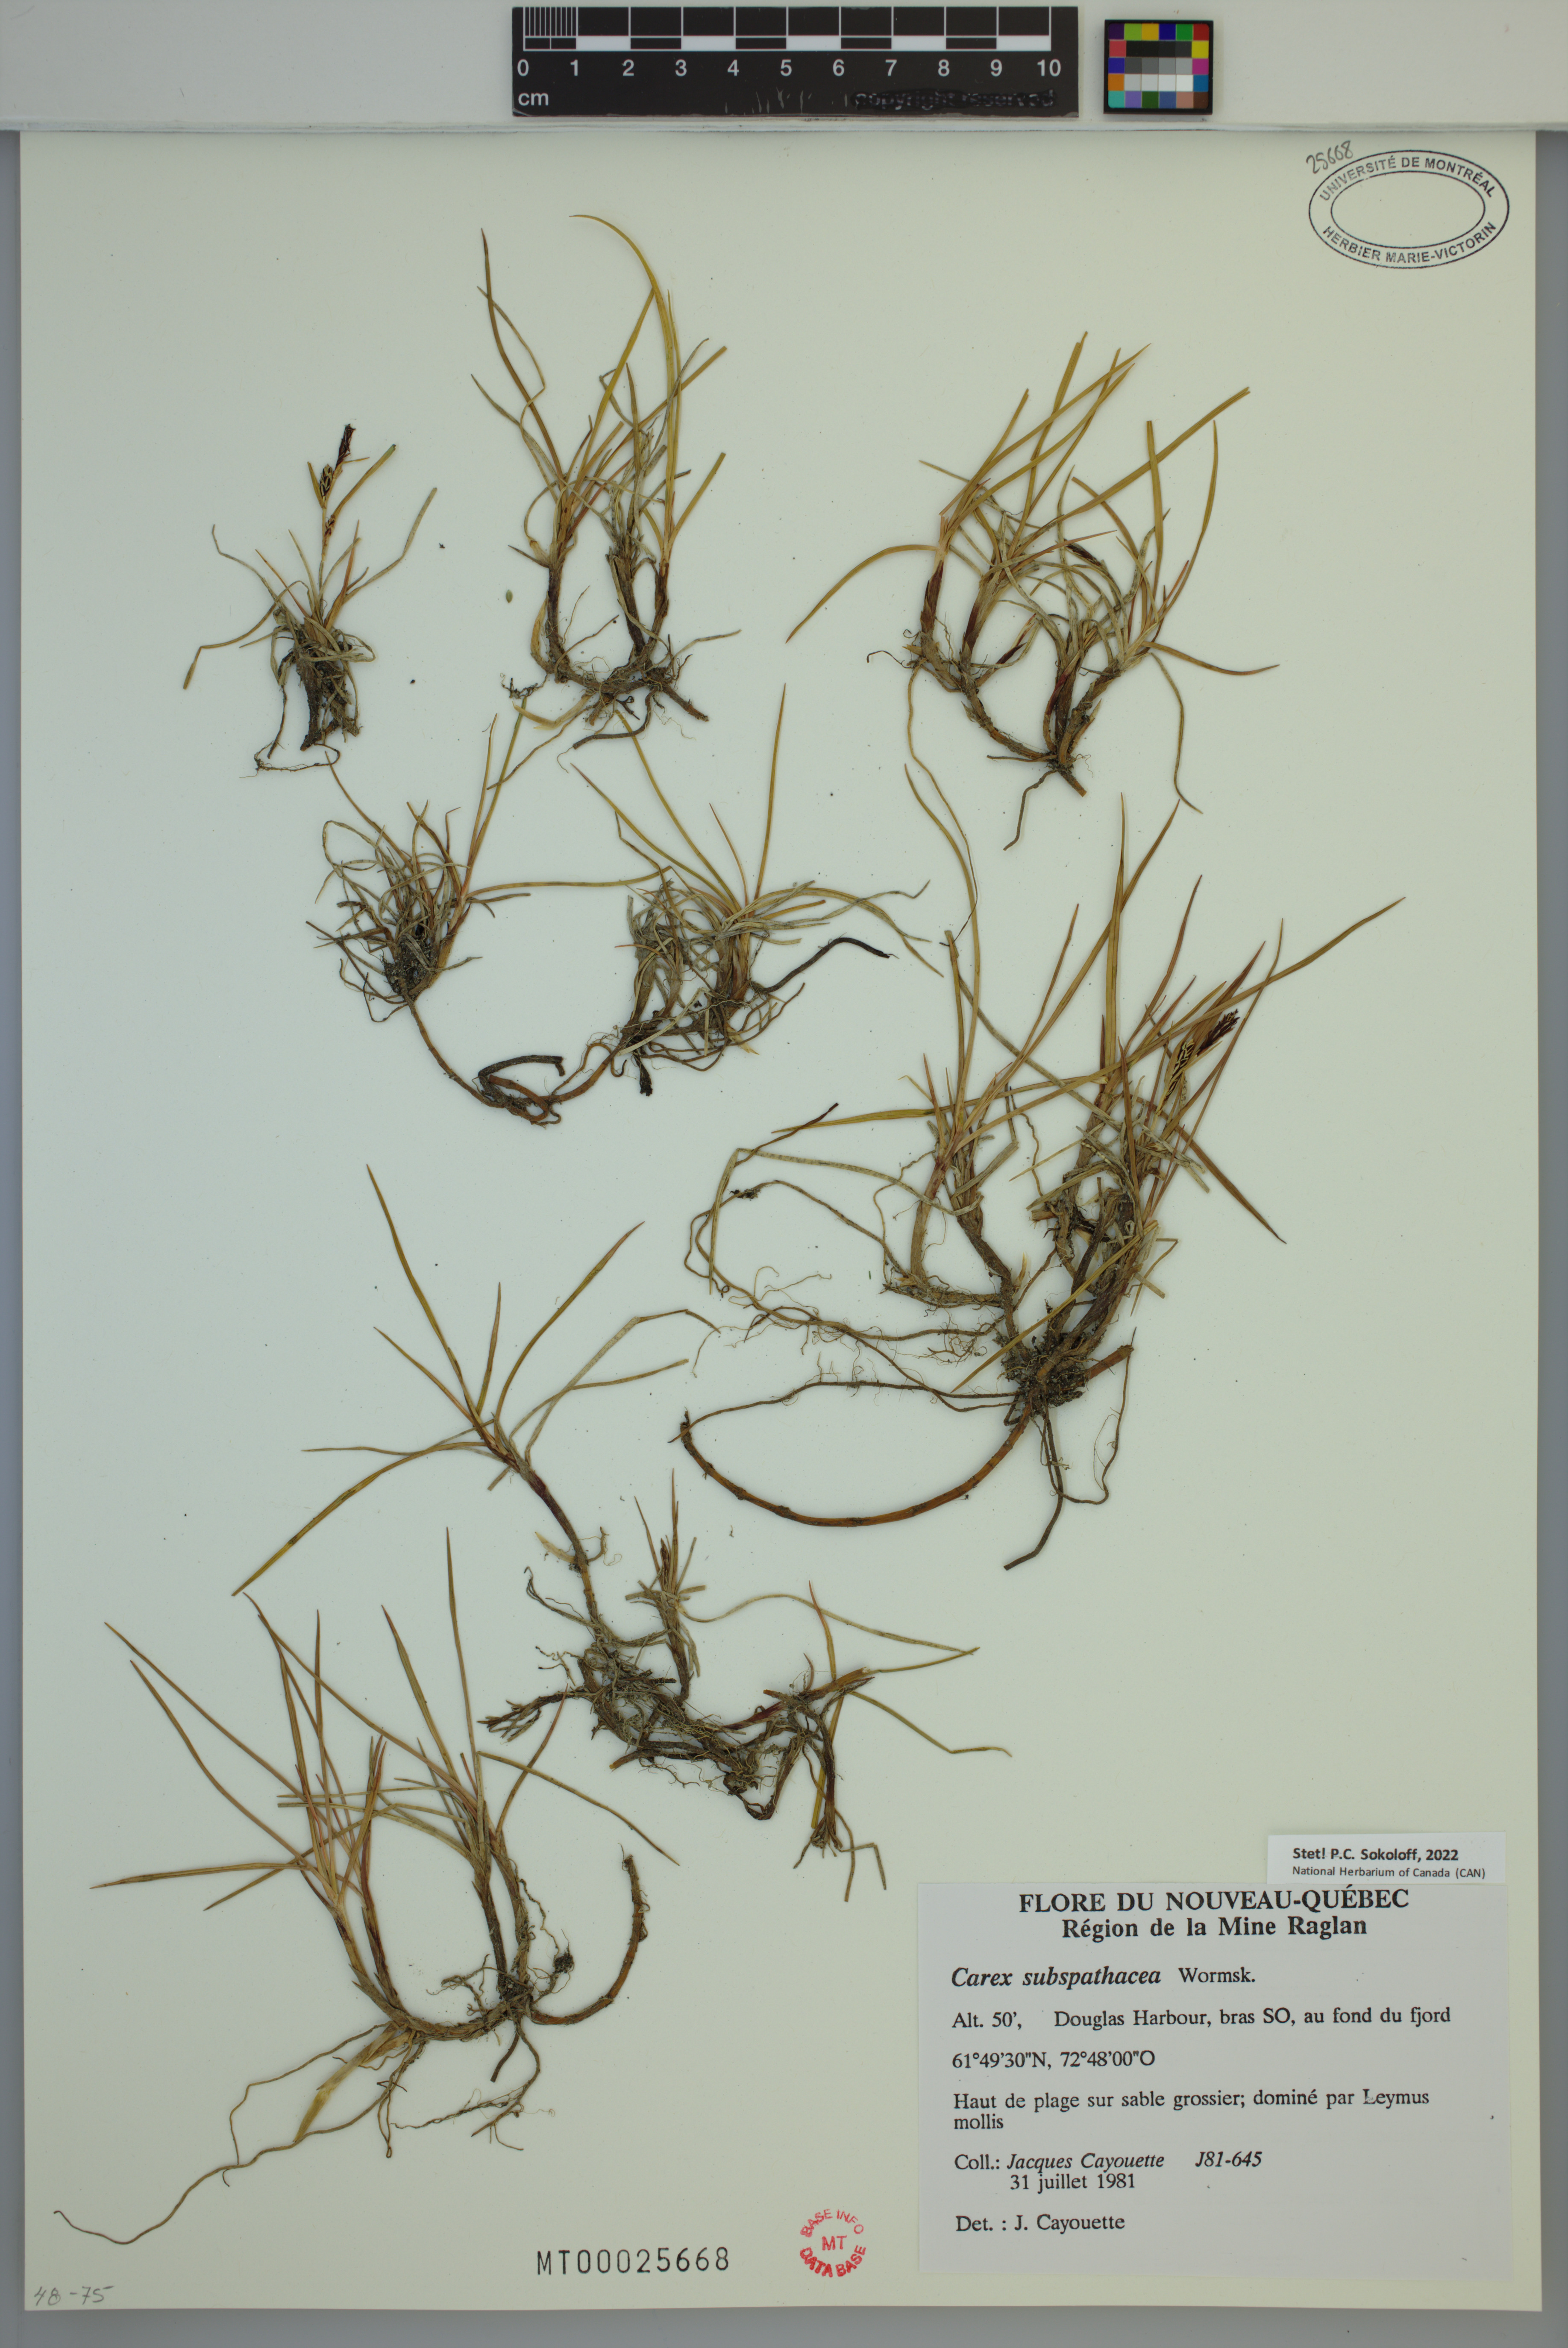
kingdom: Plantae
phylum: Tracheophyta
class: Liliopsida
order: Poales
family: Cyperaceae
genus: Carex
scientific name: Carex subspathacea
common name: Hoppner's sedge
